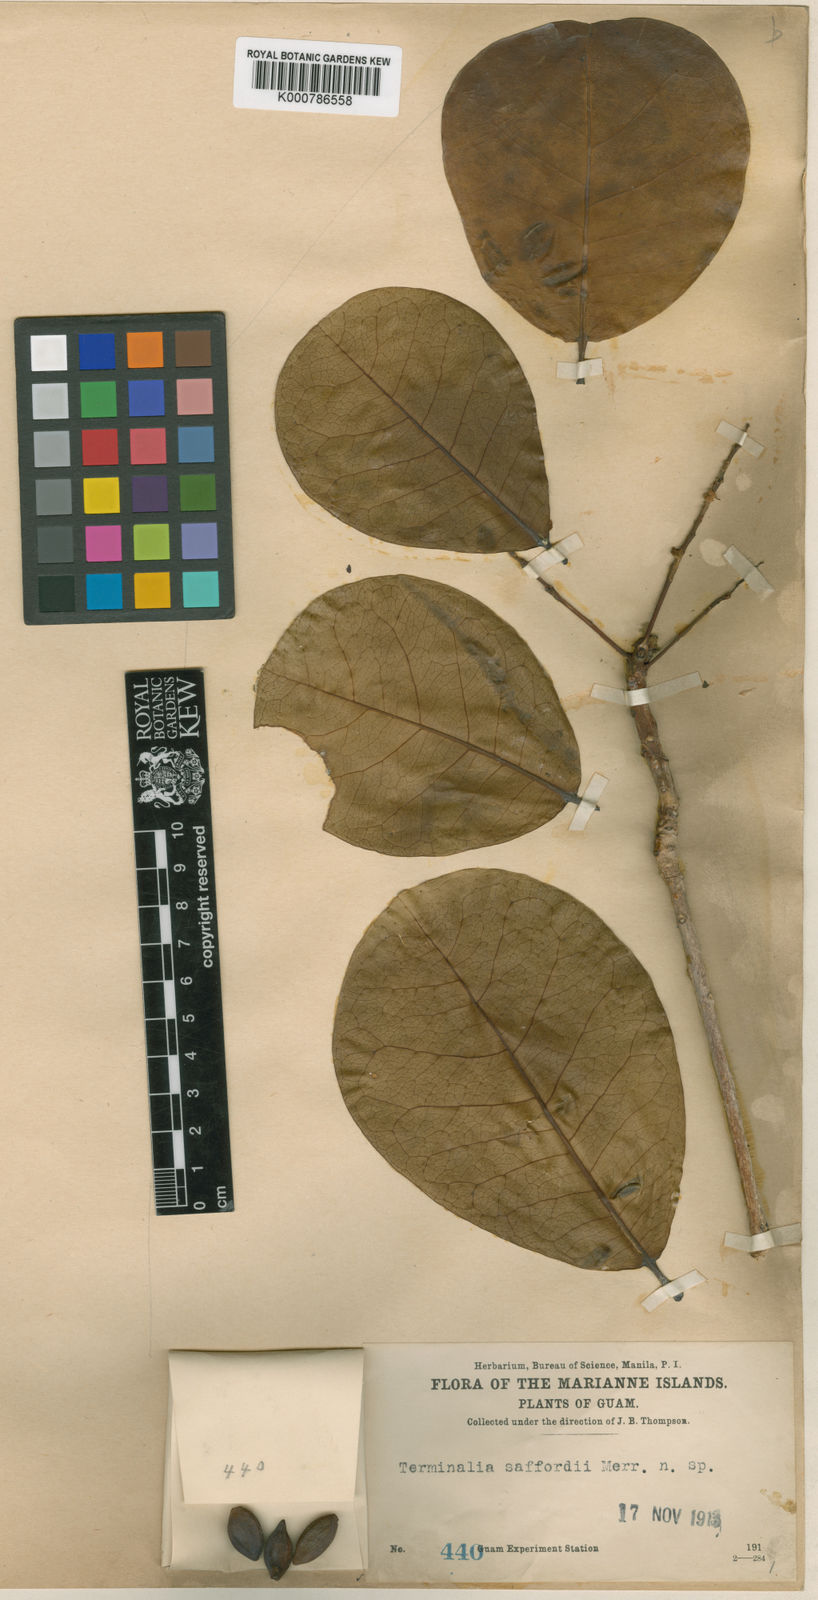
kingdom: Plantae
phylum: Tracheophyta
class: Magnoliopsida
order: Myrtales
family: Combretaceae
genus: Terminalia
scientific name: Terminalia samoensis
